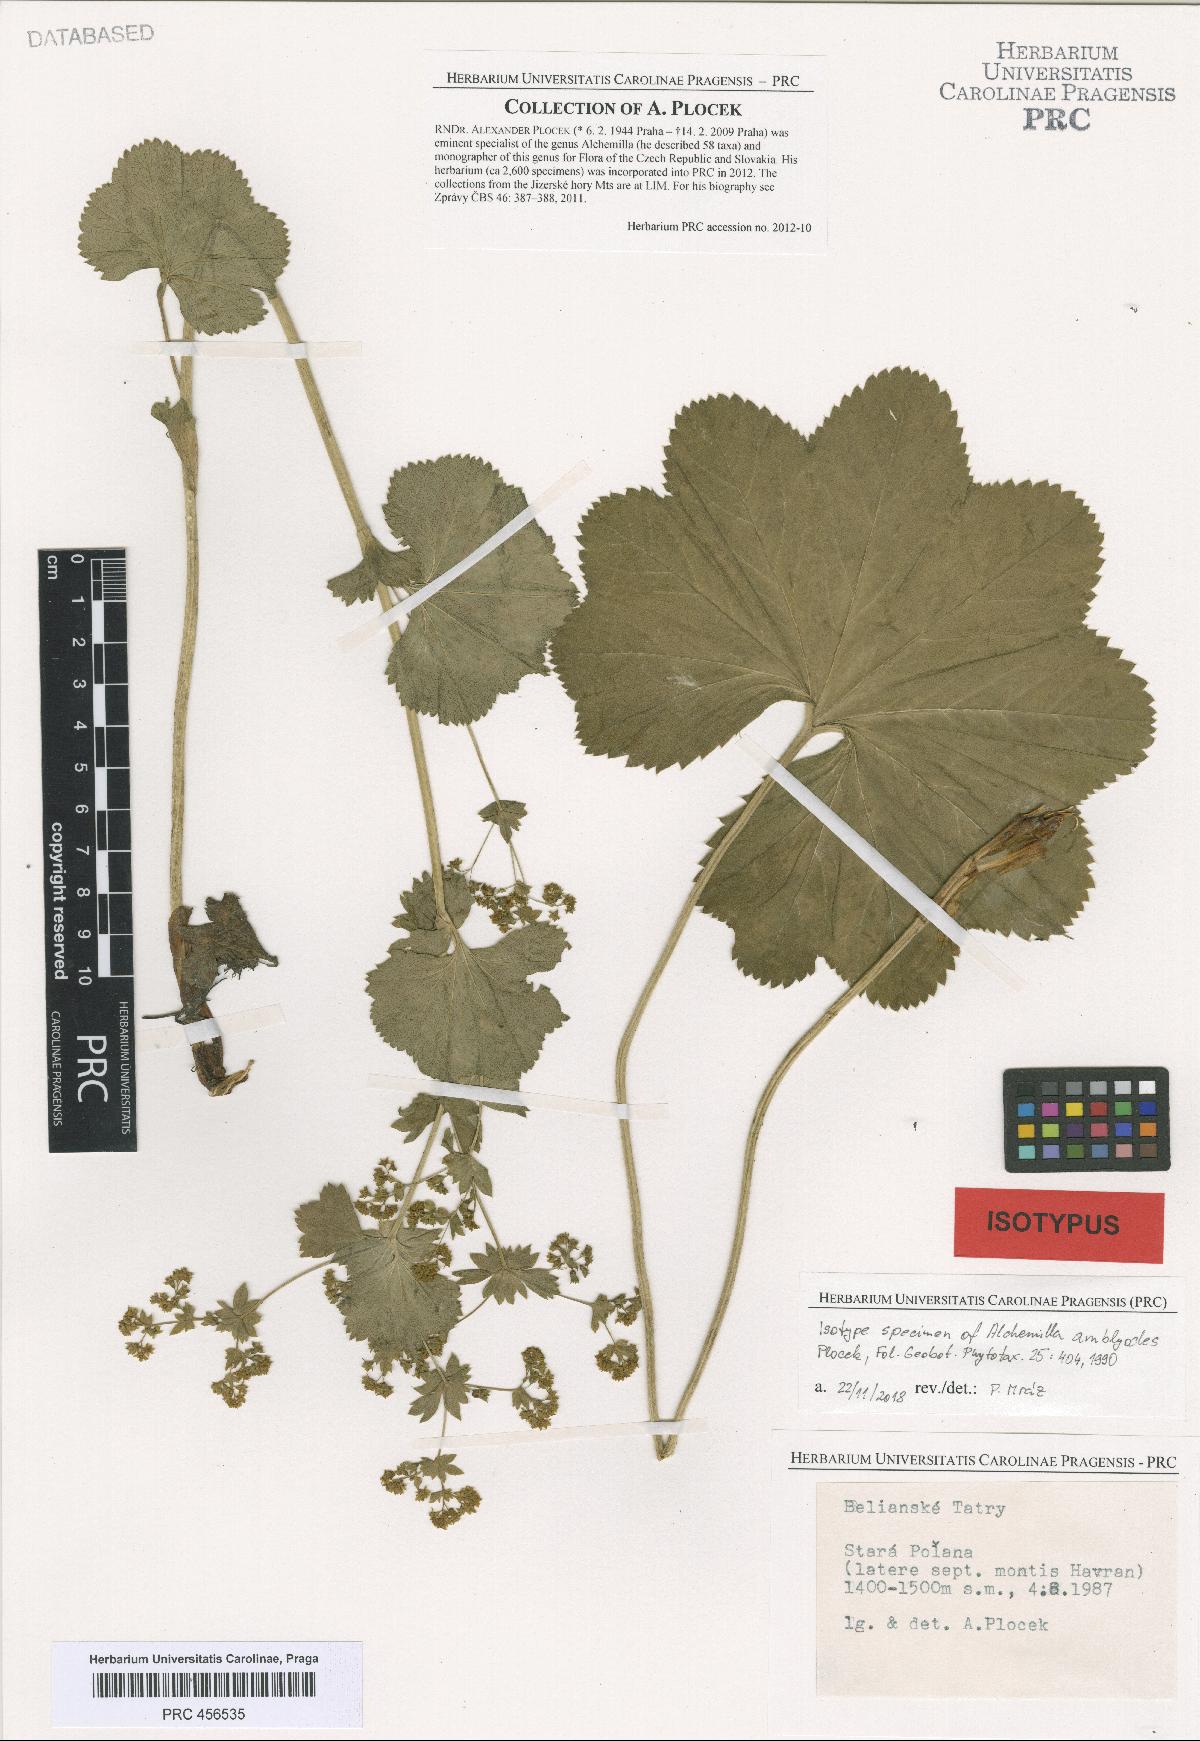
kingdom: Plantae
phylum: Tracheophyta
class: Magnoliopsida
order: Rosales
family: Rosaceae
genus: Alchemilla
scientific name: Alchemilla amblyodes
